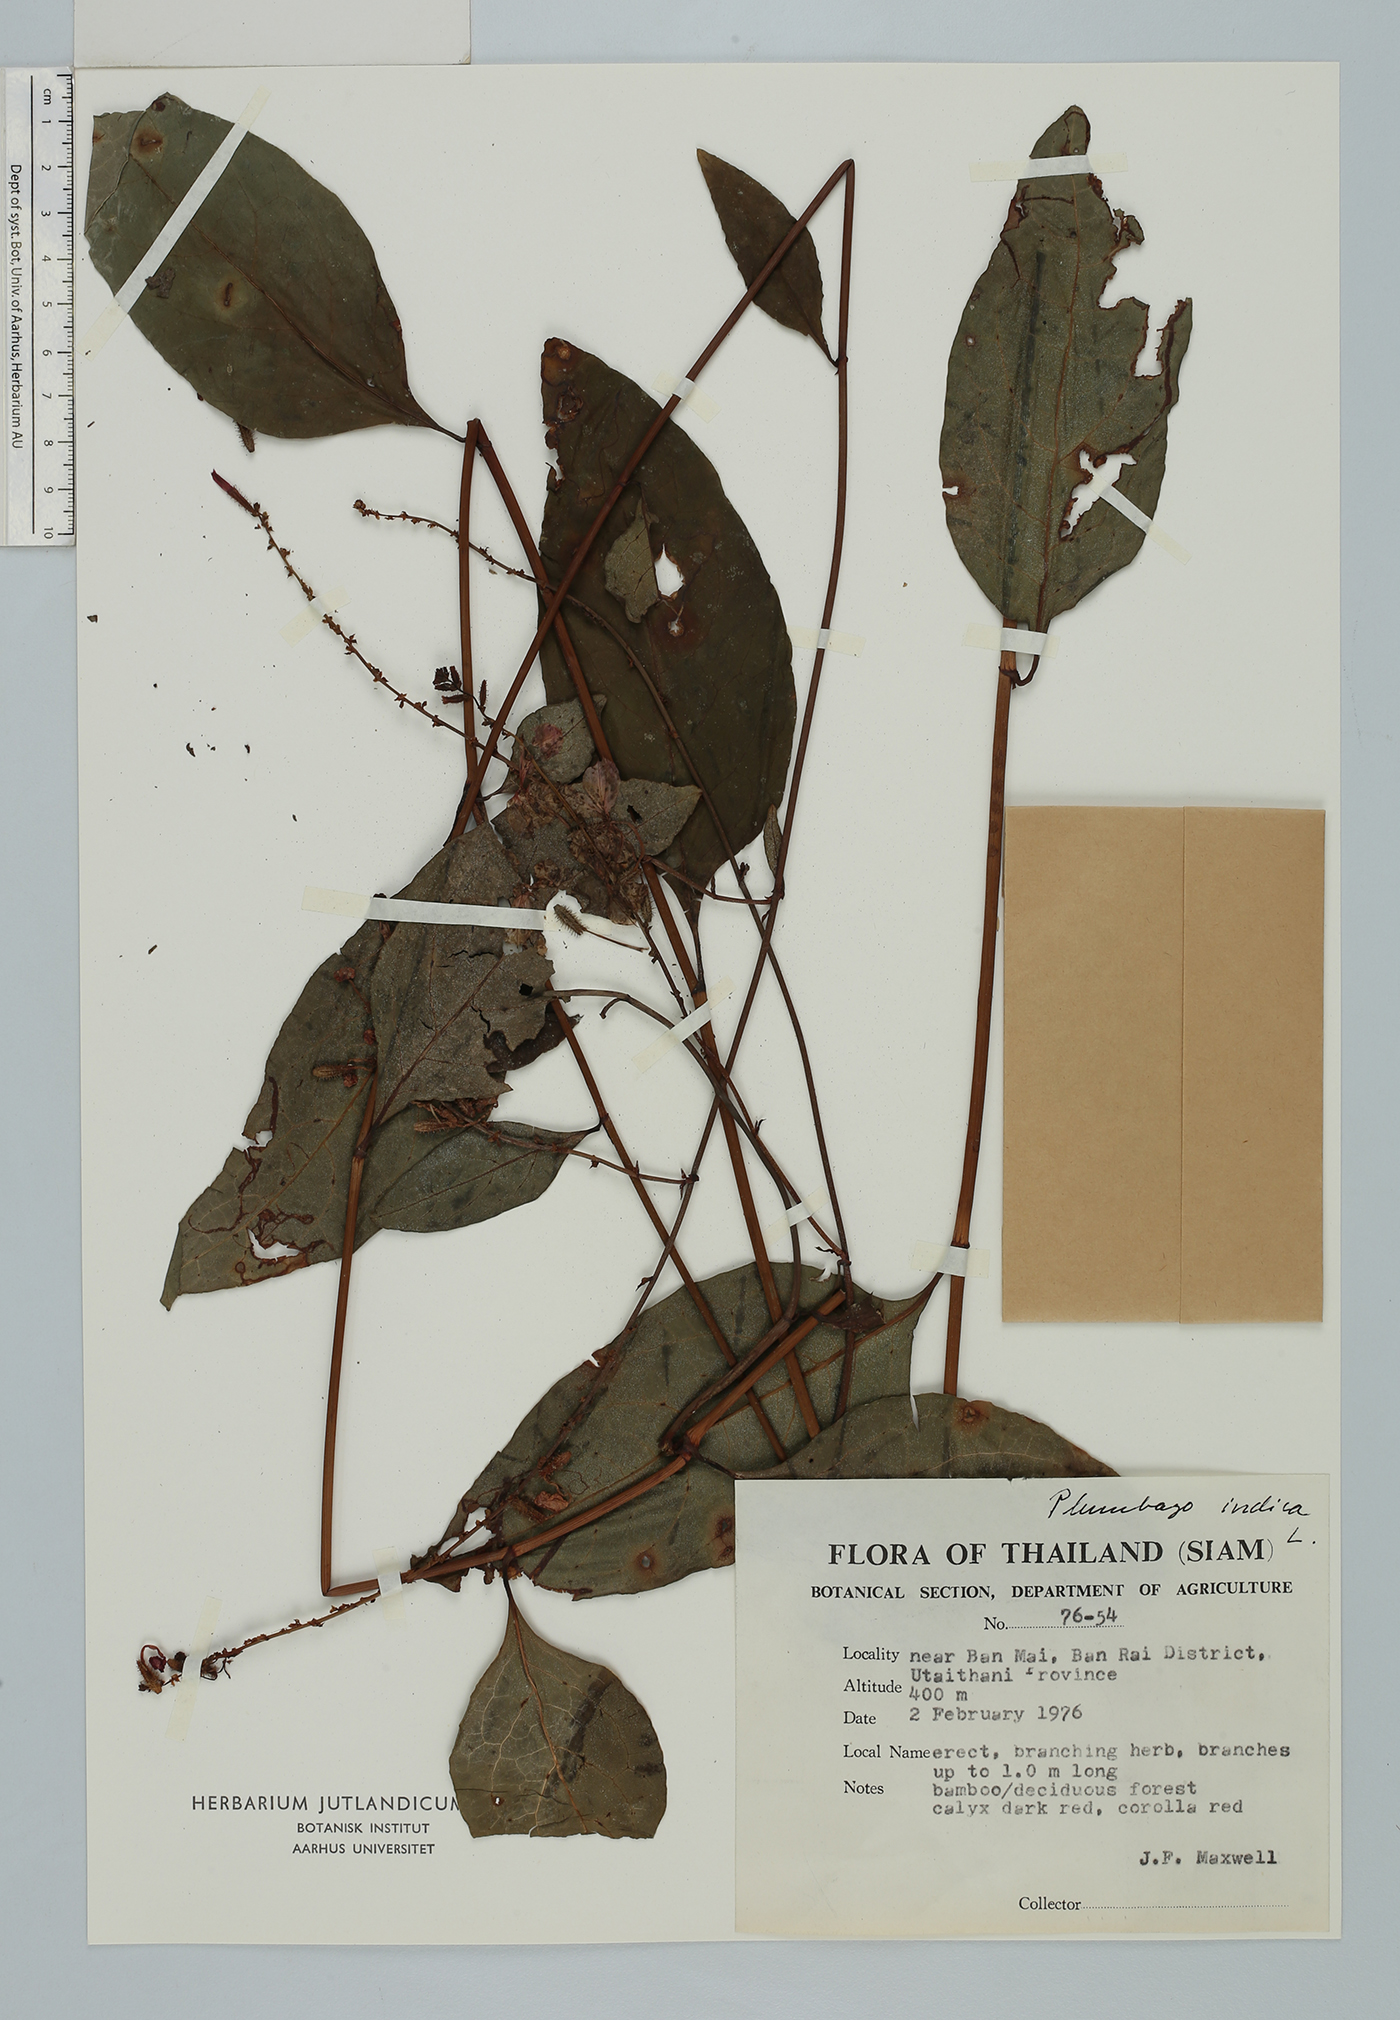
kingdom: Plantae
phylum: Tracheophyta
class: Magnoliopsida
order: Caryophyllales
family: Plumbaginaceae
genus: Plumbago
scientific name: Plumbago indica
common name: Indian leadwort
